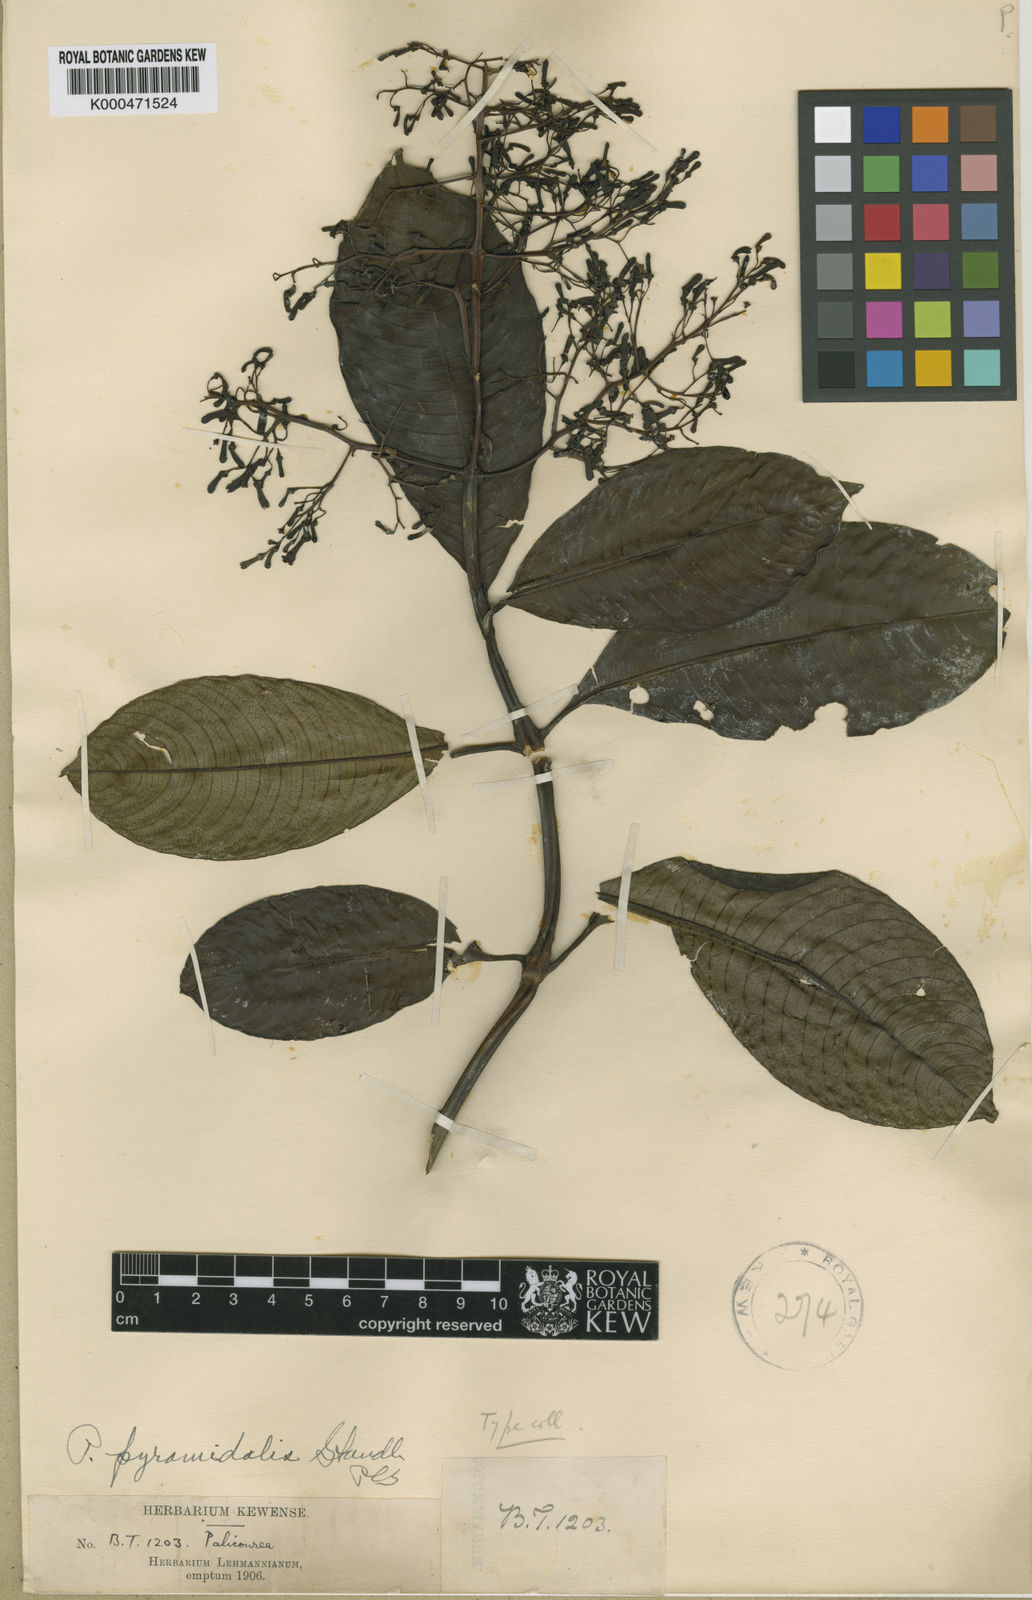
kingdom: Plantae
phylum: Tracheophyta
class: Magnoliopsida
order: Gentianales
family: Rubiaceae
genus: Palicourea
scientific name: Palicourea pyramidalis
